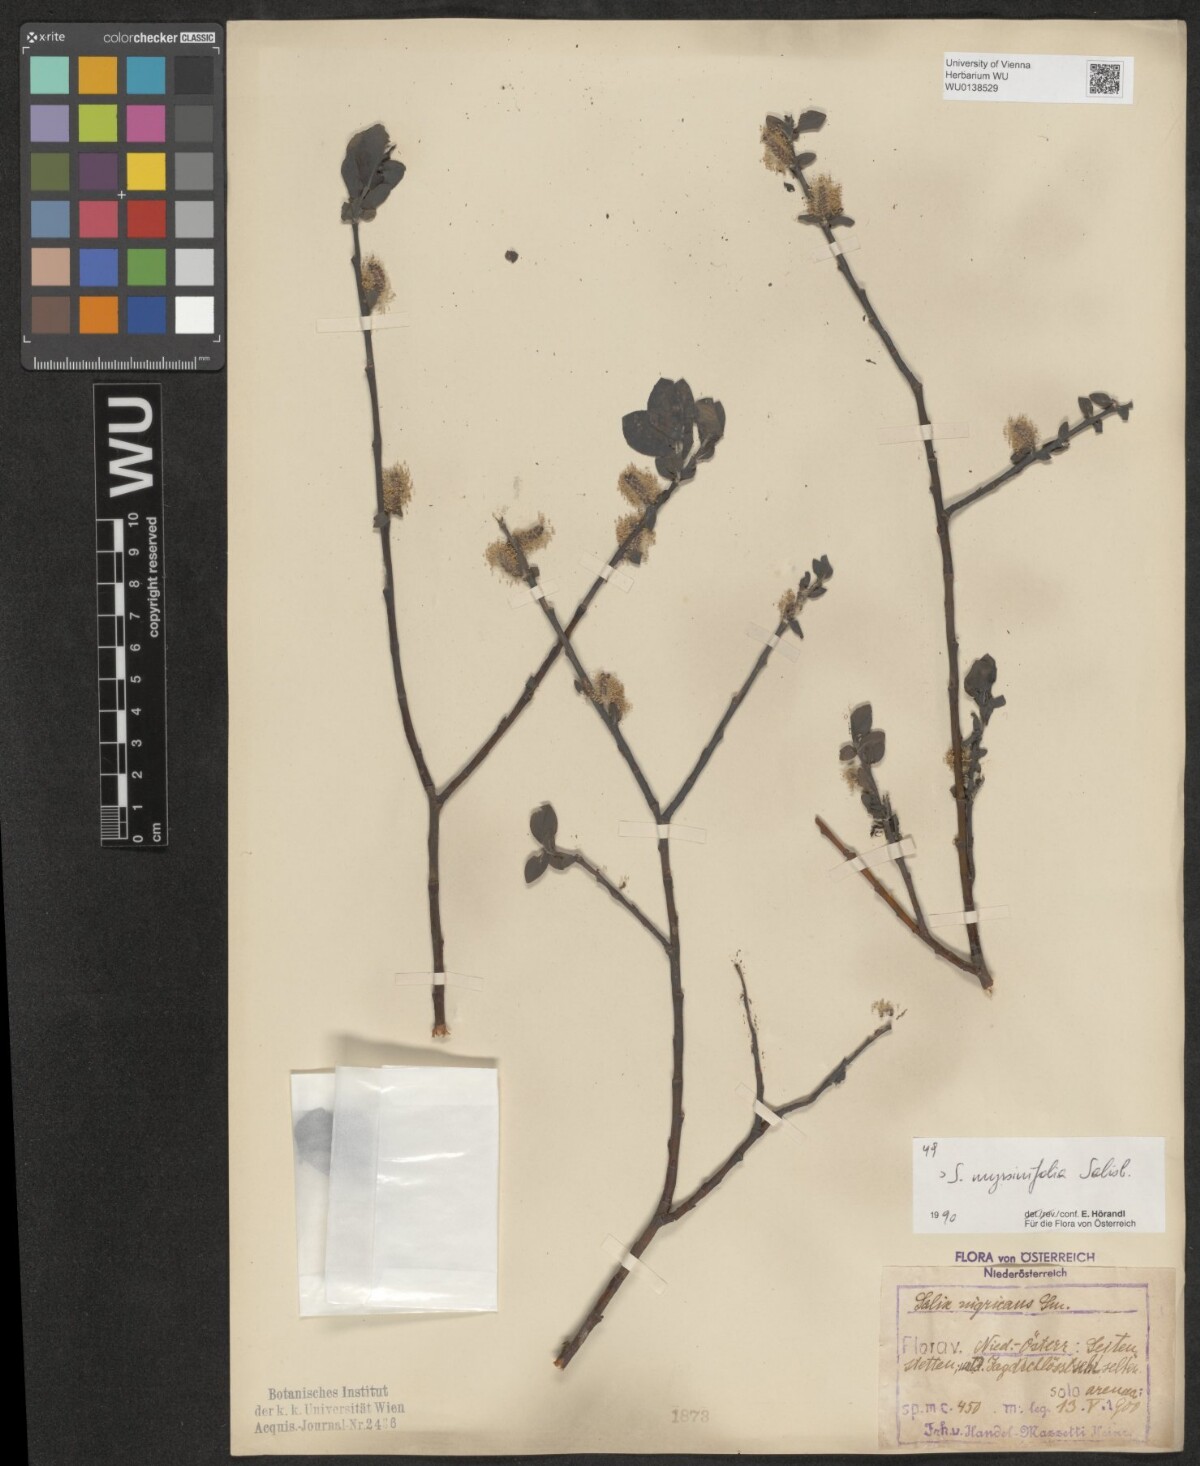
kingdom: Plantae
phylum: Tracheophyta
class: Magnoliopsida
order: Malpighiales
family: Salicaceae
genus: Salix
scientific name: Salix myrsinifolia
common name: Dark-leaved willow
